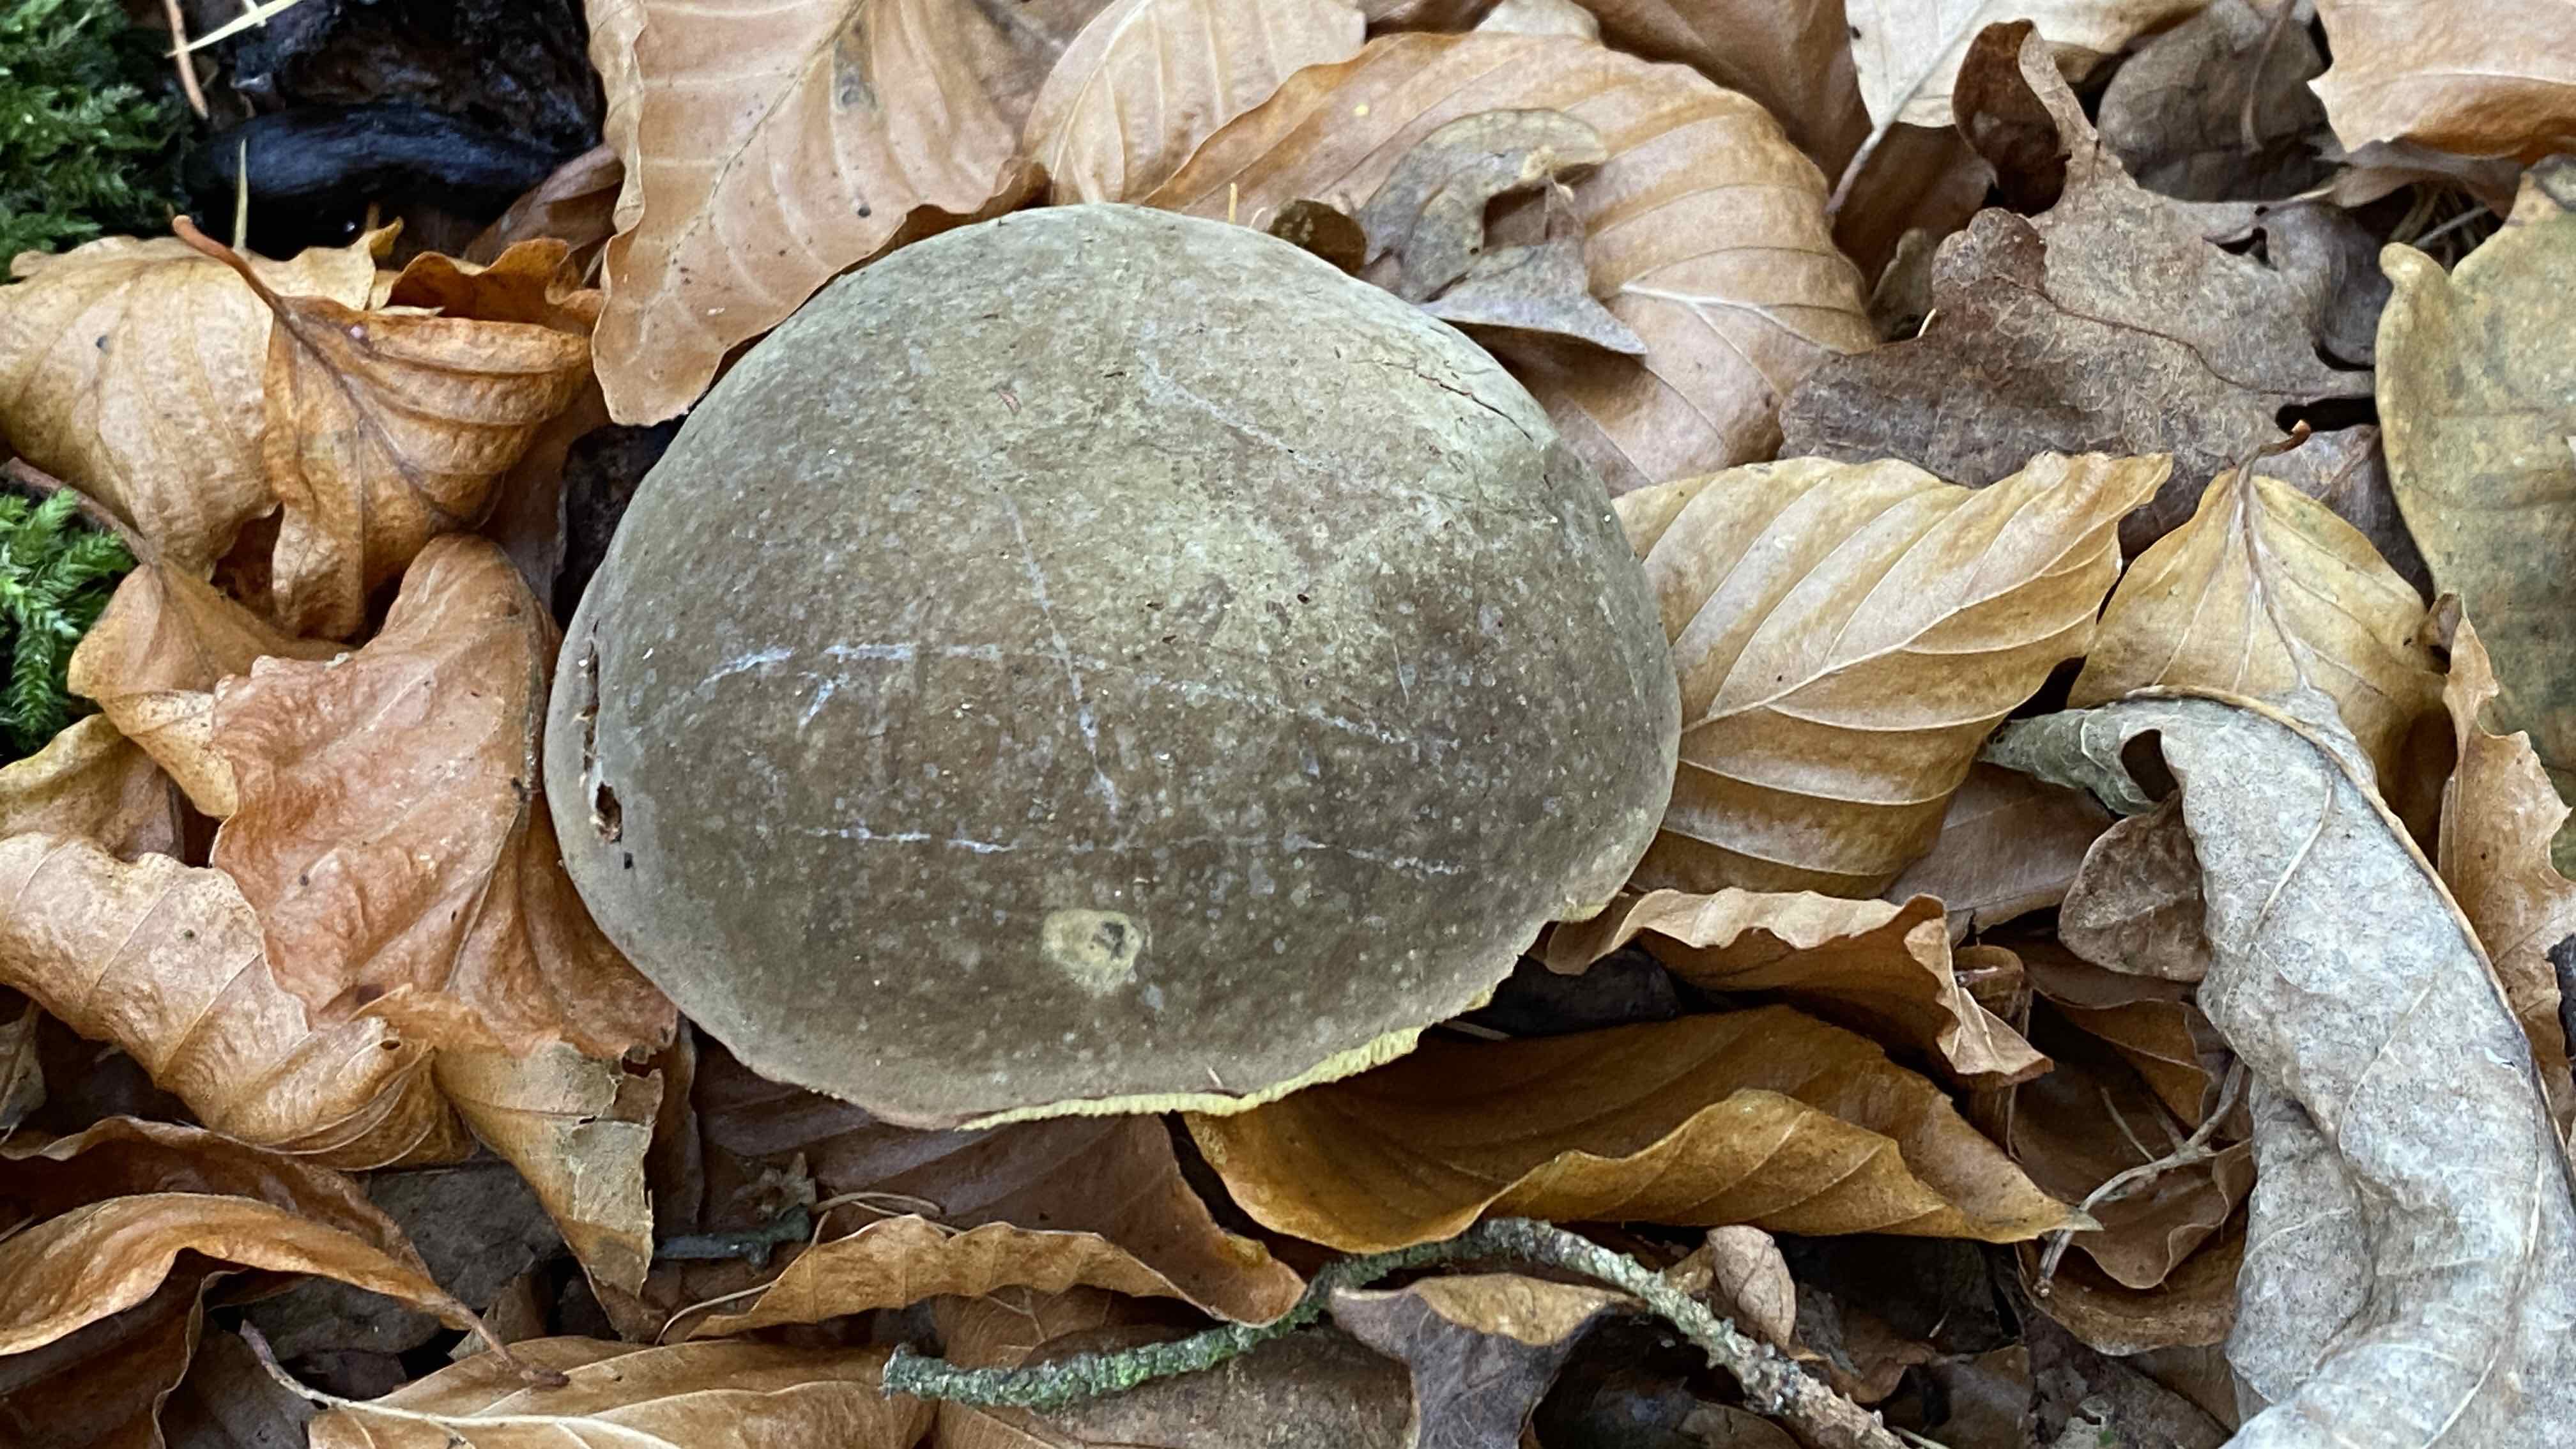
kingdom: Fungi
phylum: Basidiomycota
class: Agaricomycetes
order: Boletales
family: Boletaceae
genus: Xerocomellus
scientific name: Xerocomellus pruinatus
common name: dugget rørhat
